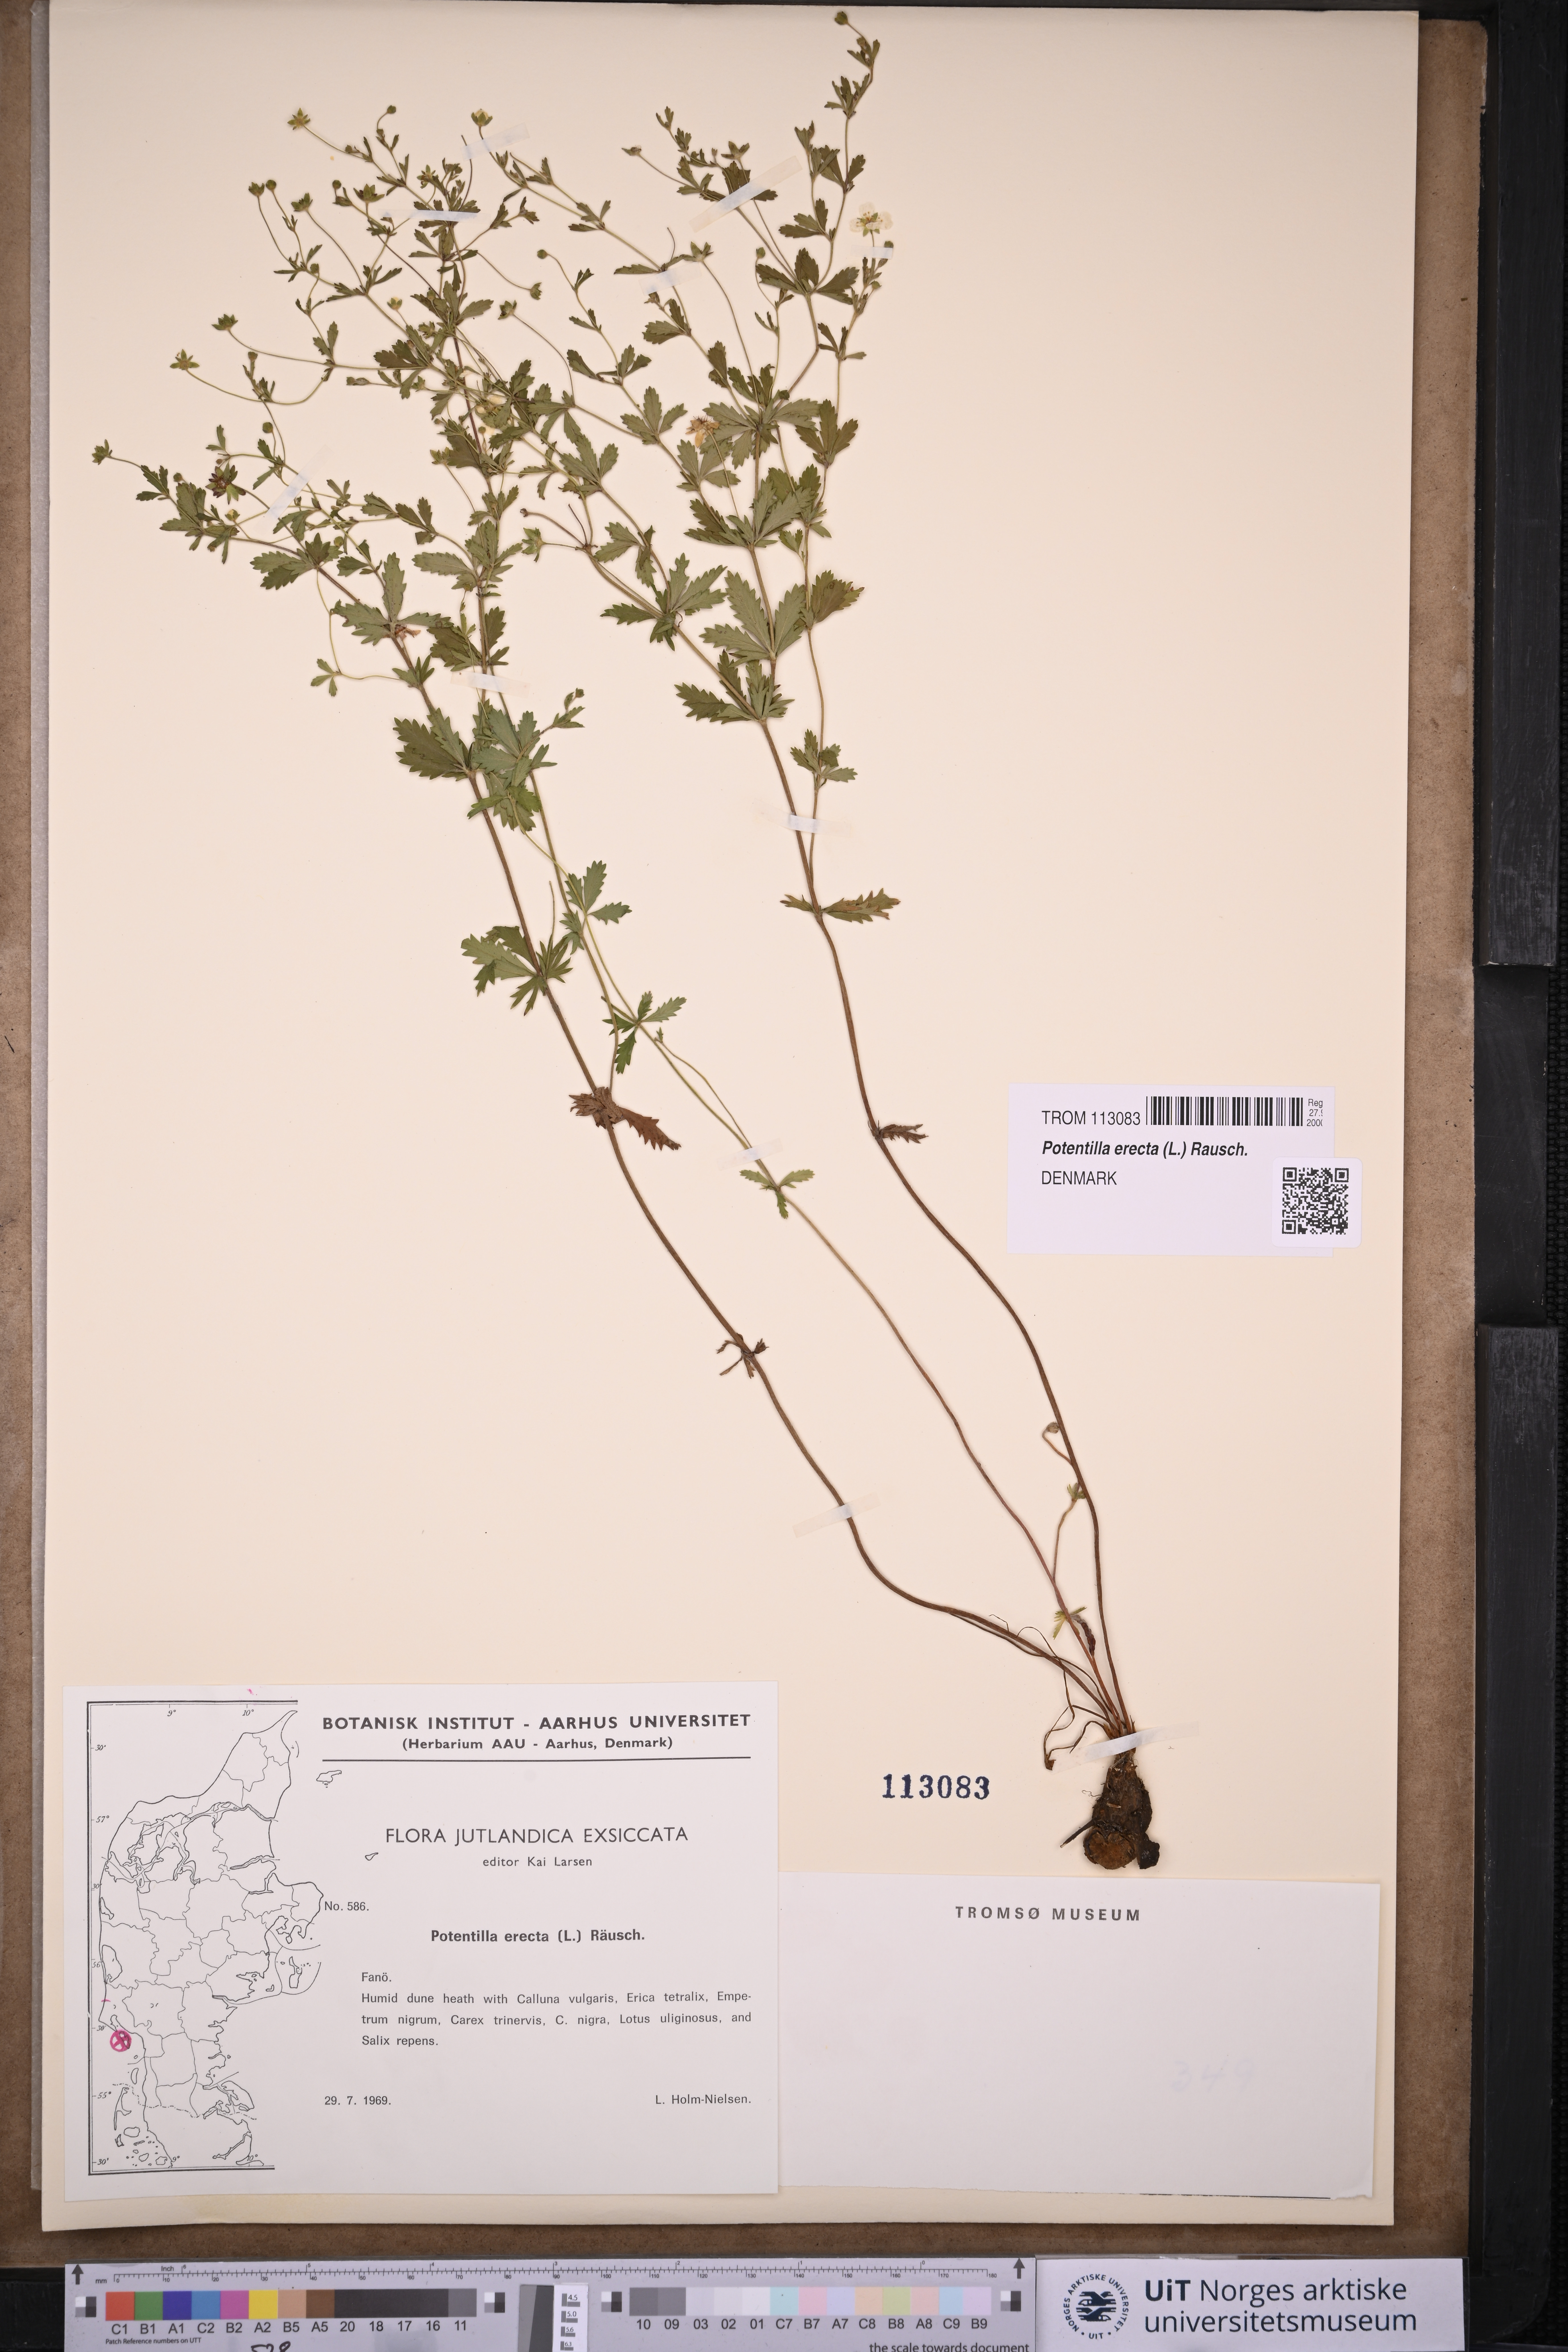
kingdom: Plantae
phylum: Tracheophyta
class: Magnoliopsida
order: Rosales
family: Rosaceae
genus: Potentilla
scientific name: Potentilla erecta
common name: Tormentil
